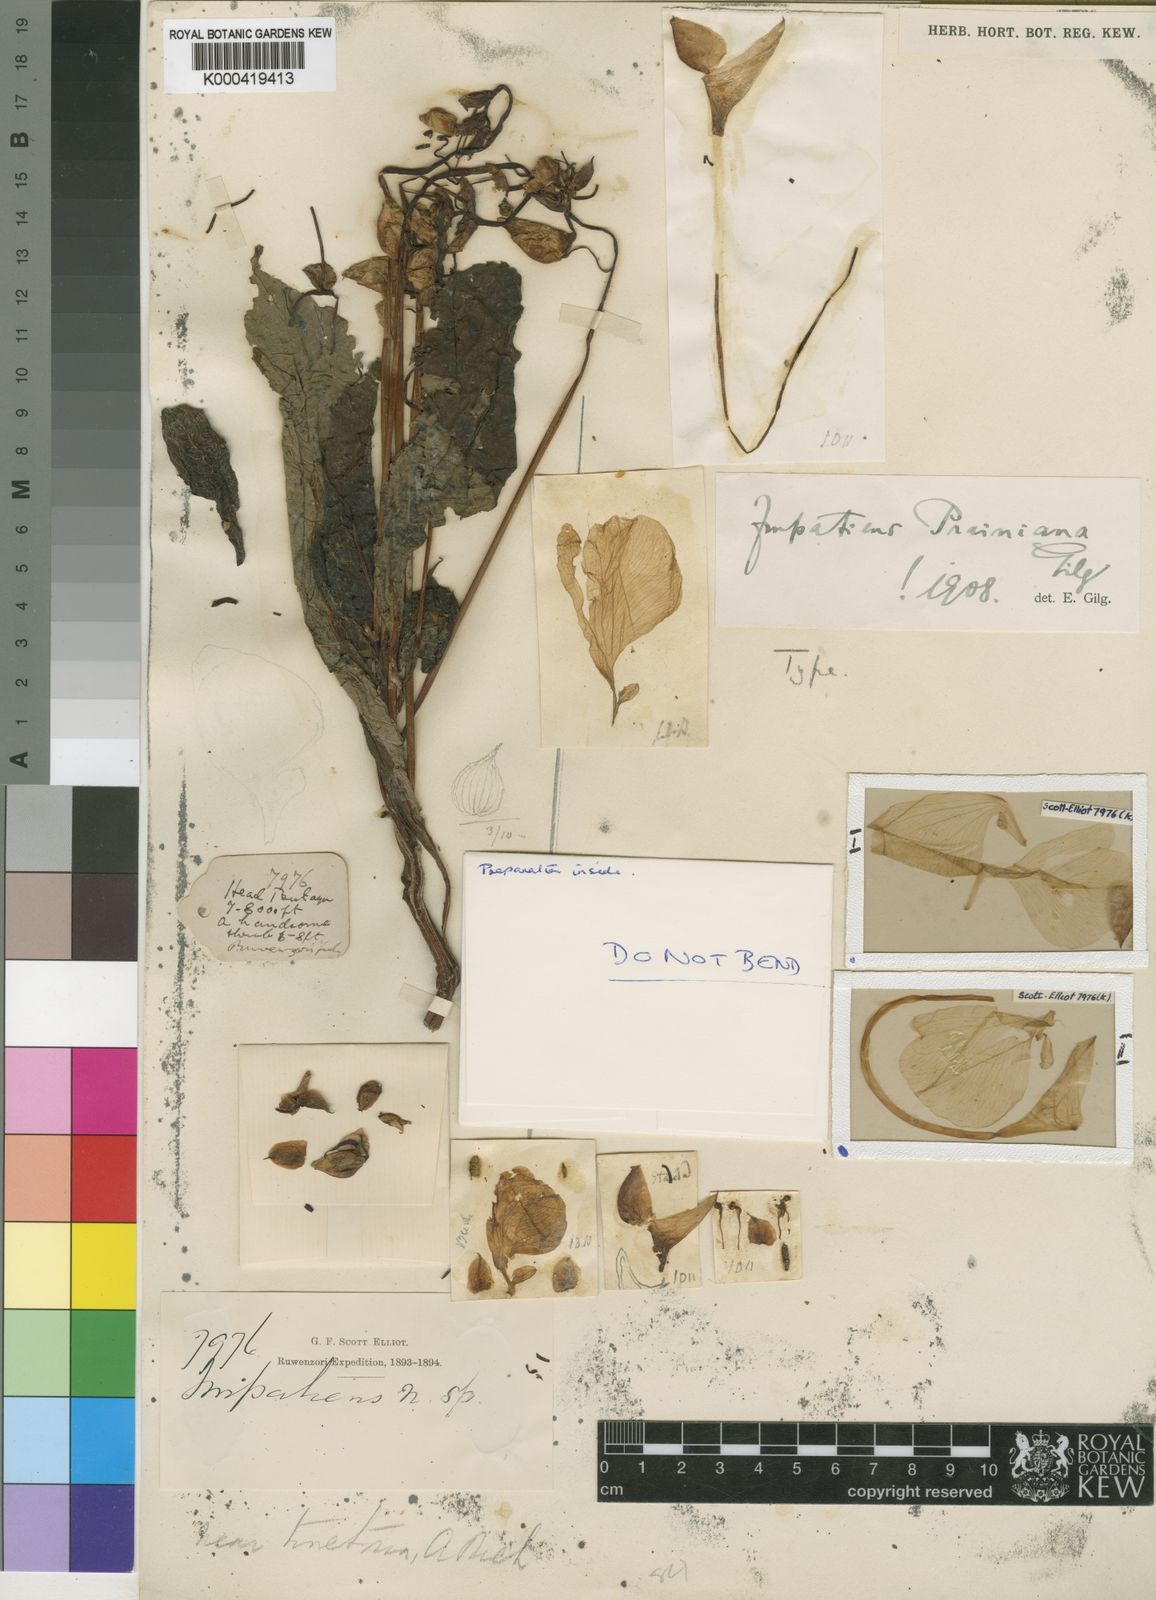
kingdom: Plantae
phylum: Tracheophyta
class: Magnoliopsida
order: Ericales
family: Balsaminaceae
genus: Impatiens
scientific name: Impatiens tinctoria
